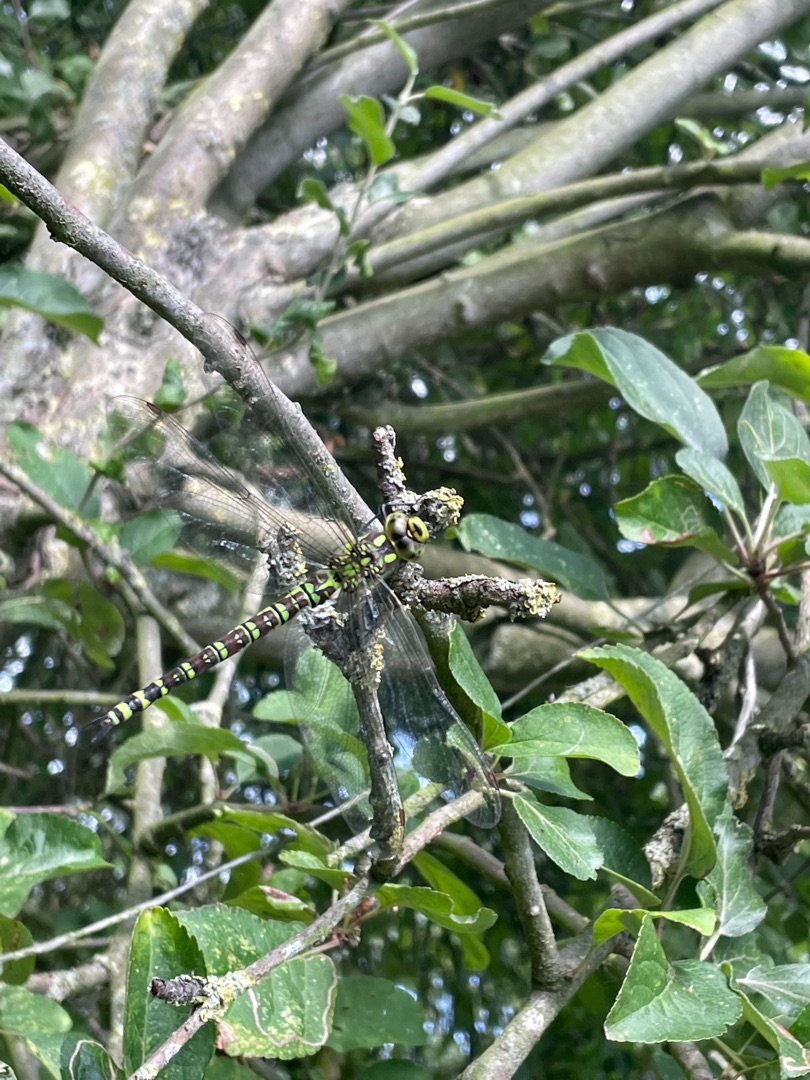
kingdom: Animalia
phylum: Arthropoda
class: Insecta
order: Odonata
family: Aeshnidae
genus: Aeshna
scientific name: Aeshna cyanea
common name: Blå mosaikguldsmed
